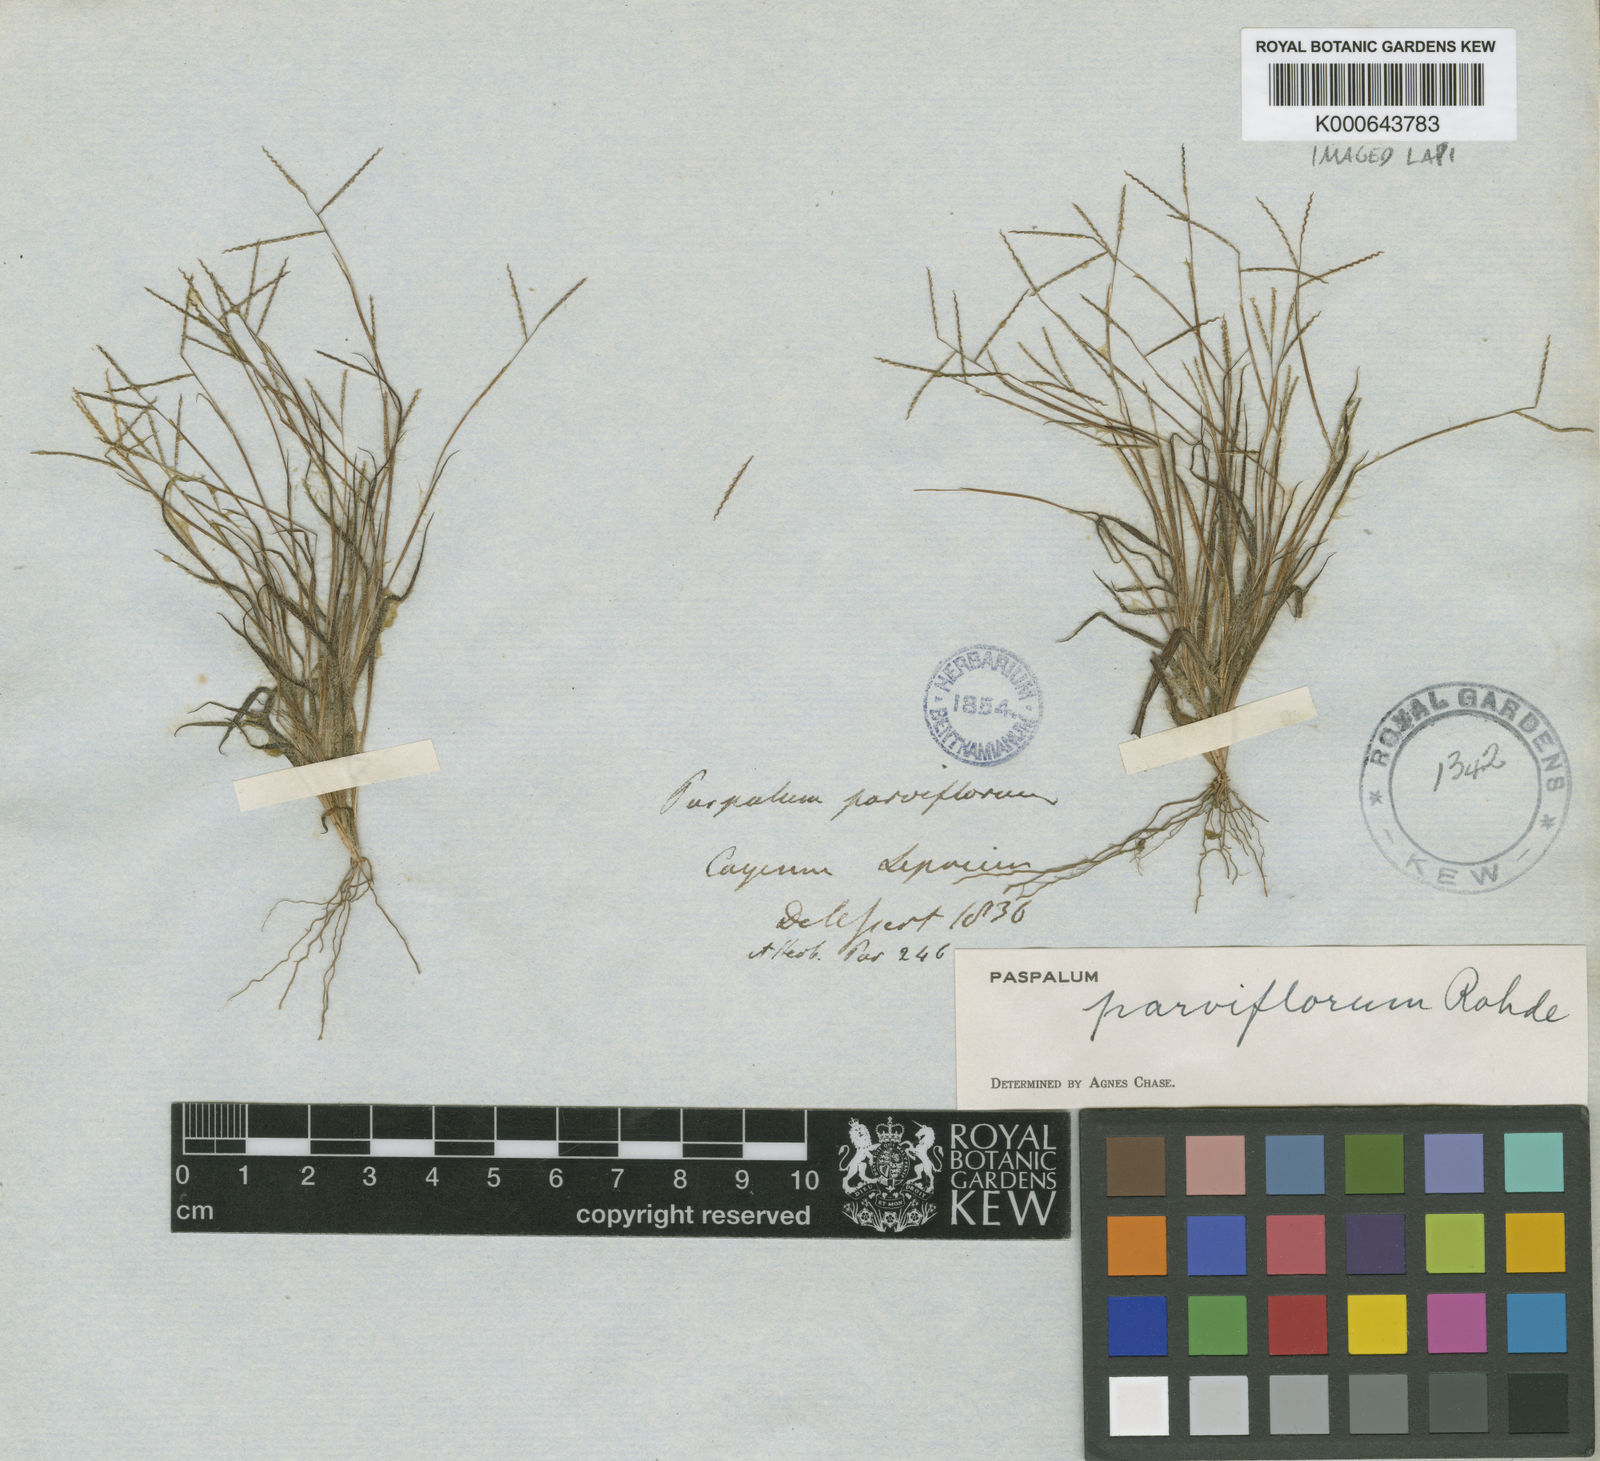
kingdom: Plantae
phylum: Tracheophyta
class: Liliopsida
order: Poales
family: Poaceae
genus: Paspalum
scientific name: Paspalum
